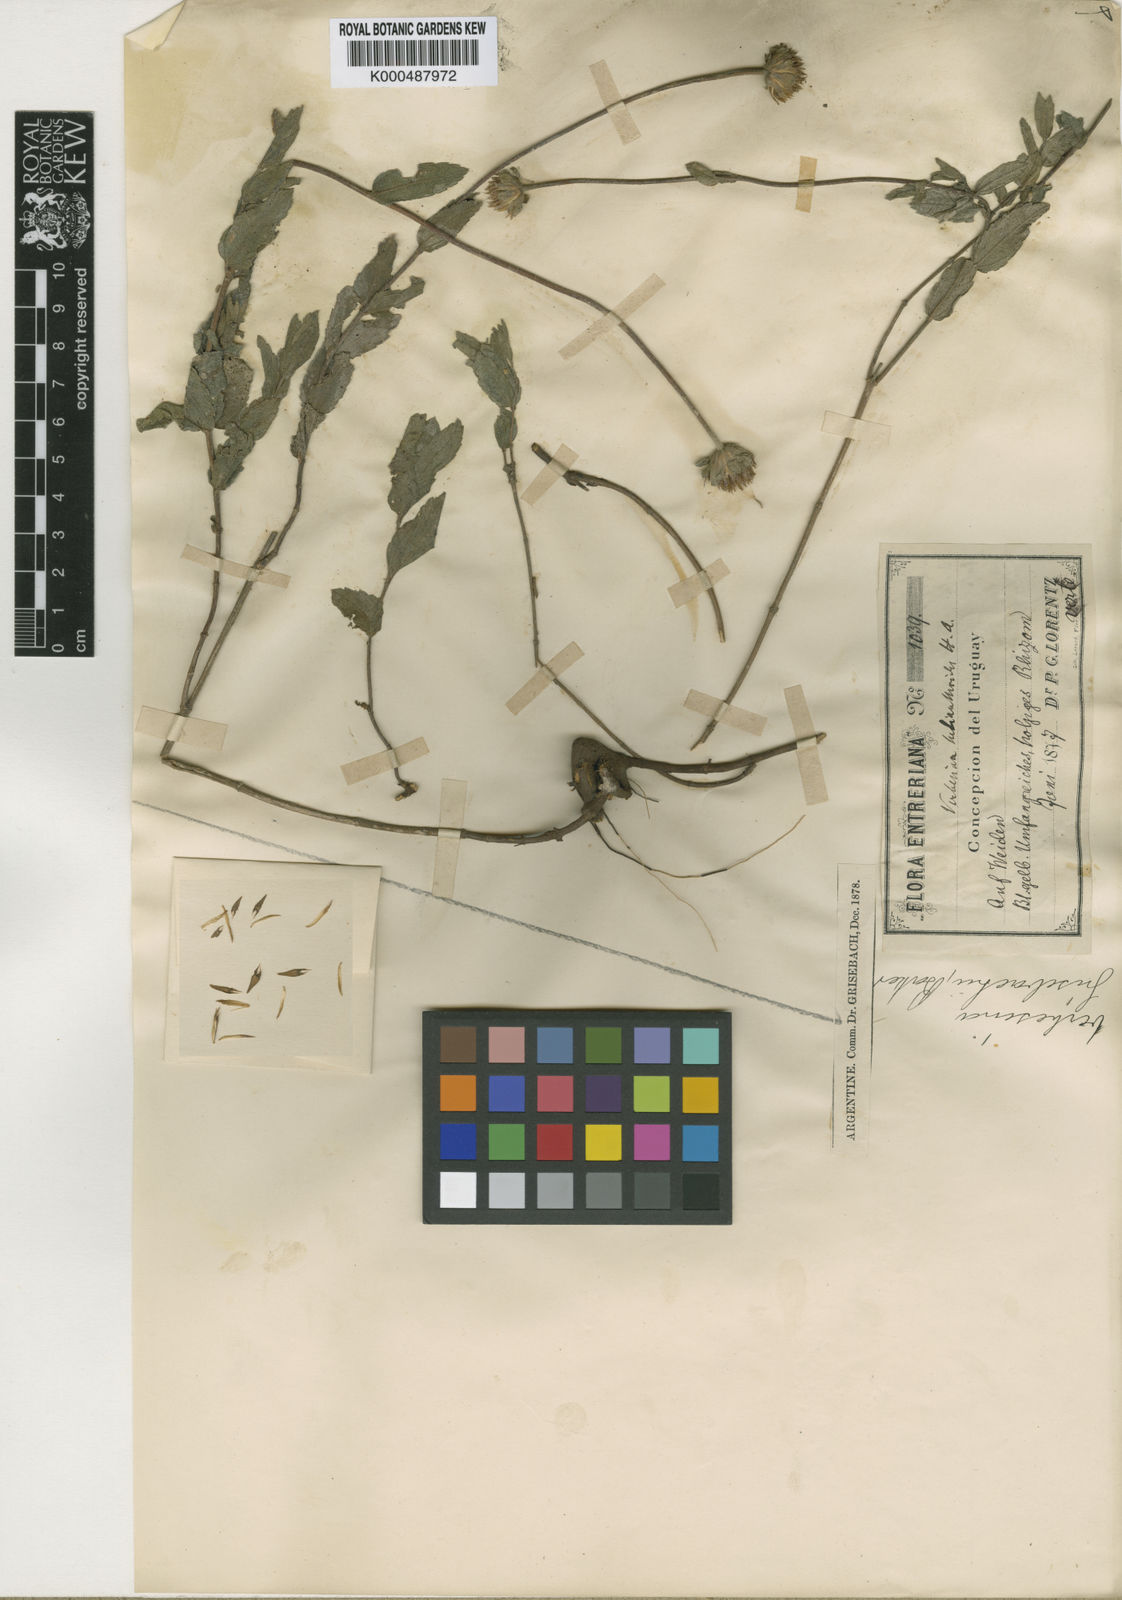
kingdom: Plantae
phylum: Tracheophyta
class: Magnoliopsida
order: Asterales
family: Asteraceae
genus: Dimerostemma
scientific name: Dimerostemma grisebachii
